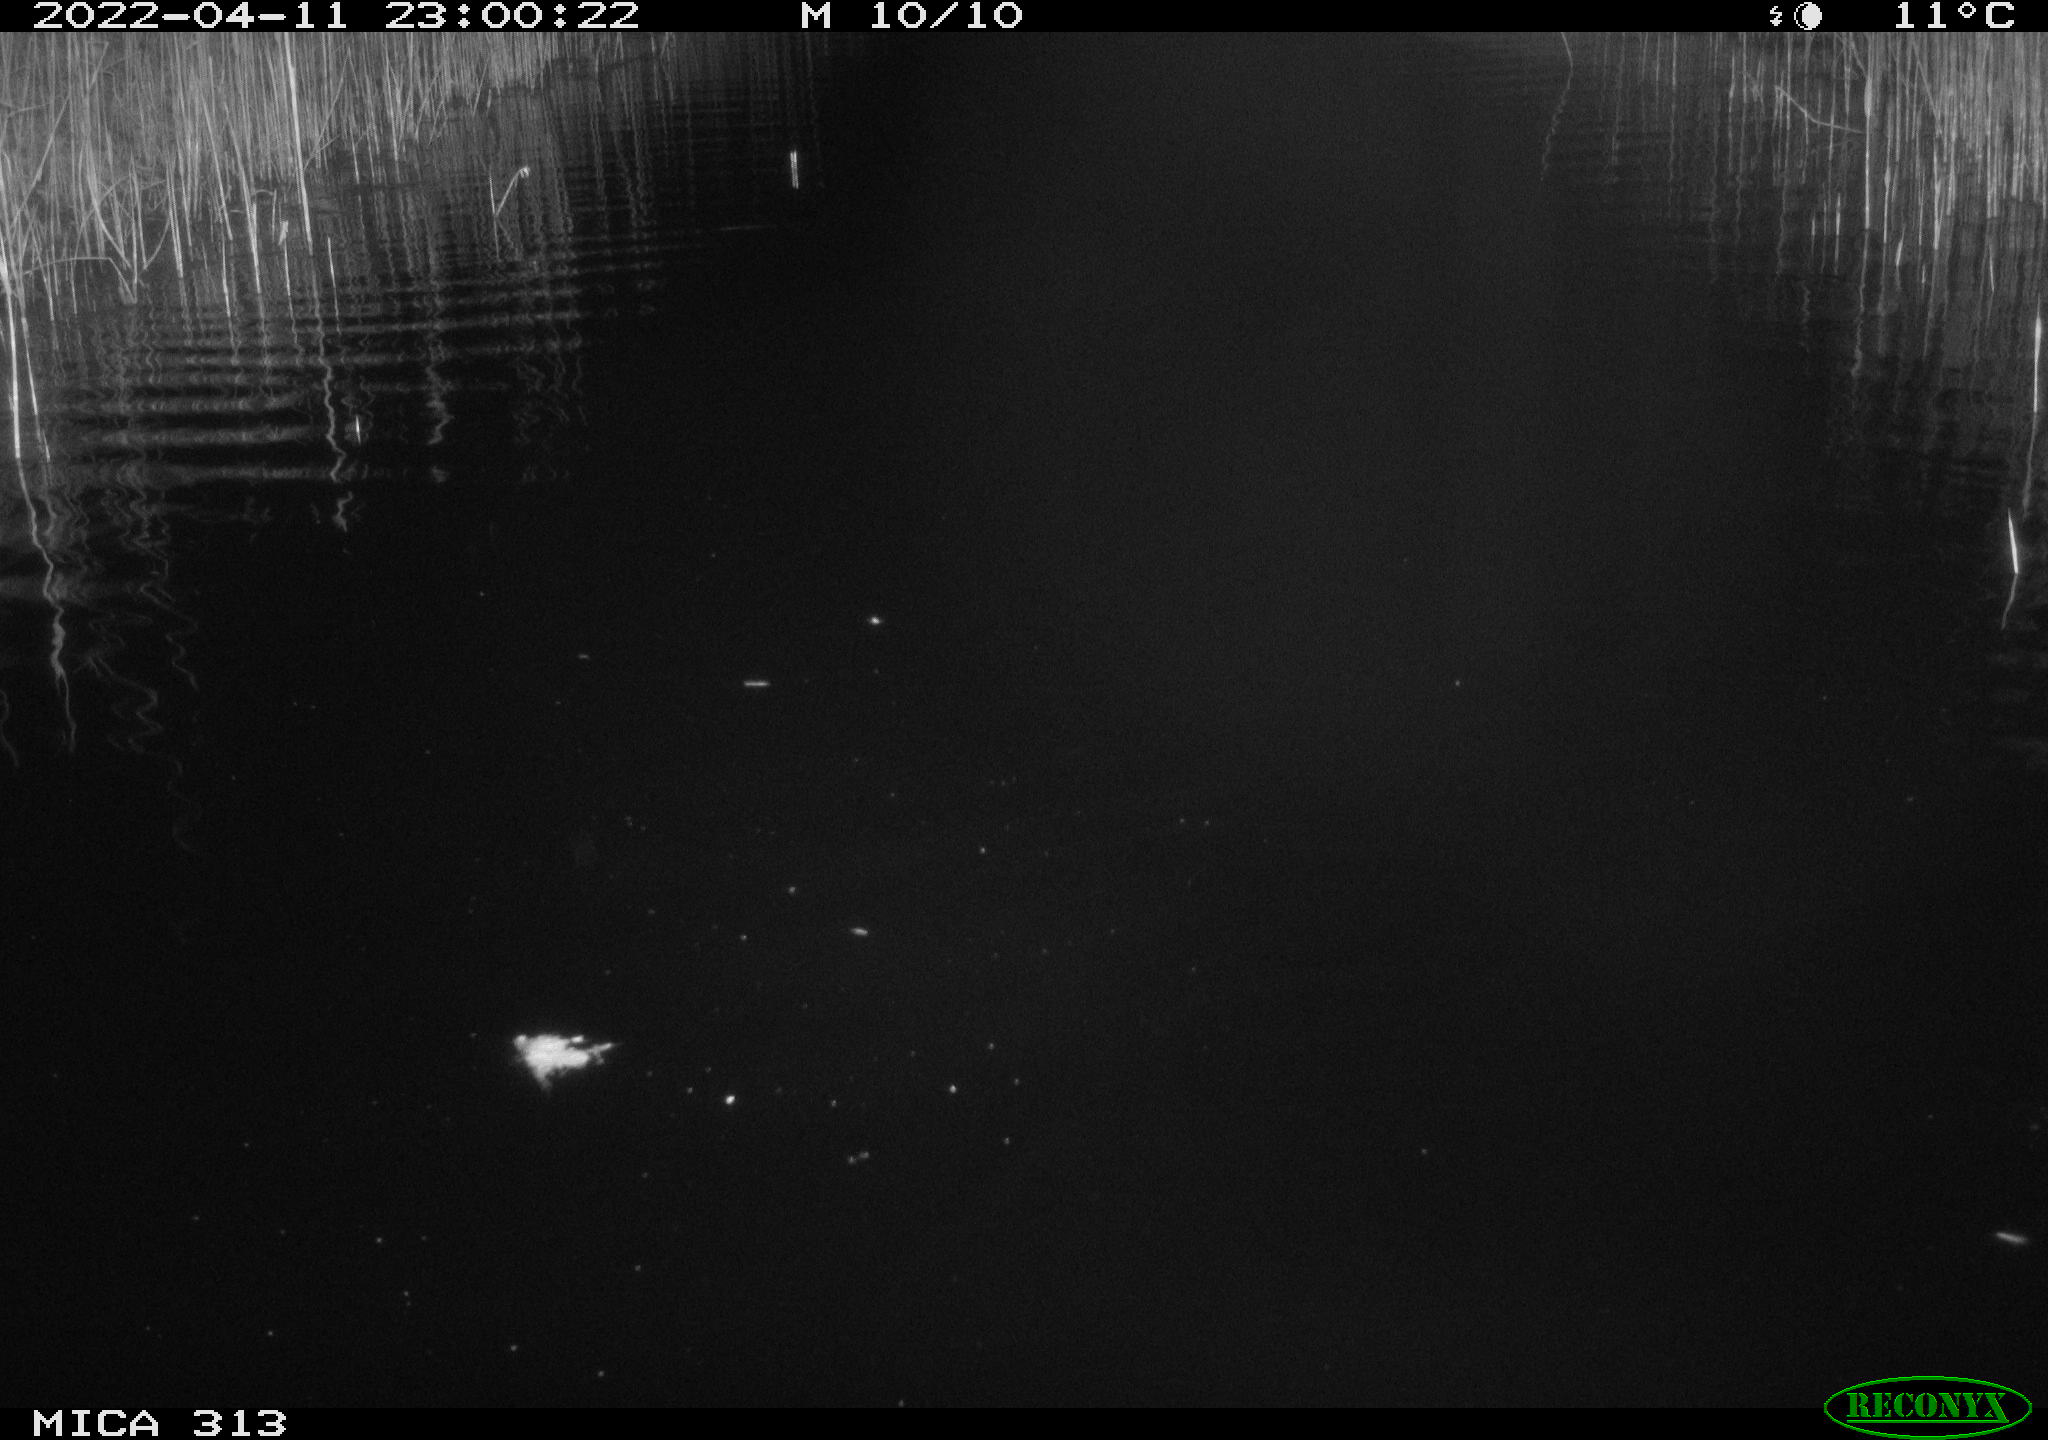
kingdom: Animalia
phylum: Chordata
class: Mammalia
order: Rodentia
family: Muridae
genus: Rattus
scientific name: Rattus norvegicus
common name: Brown rat
